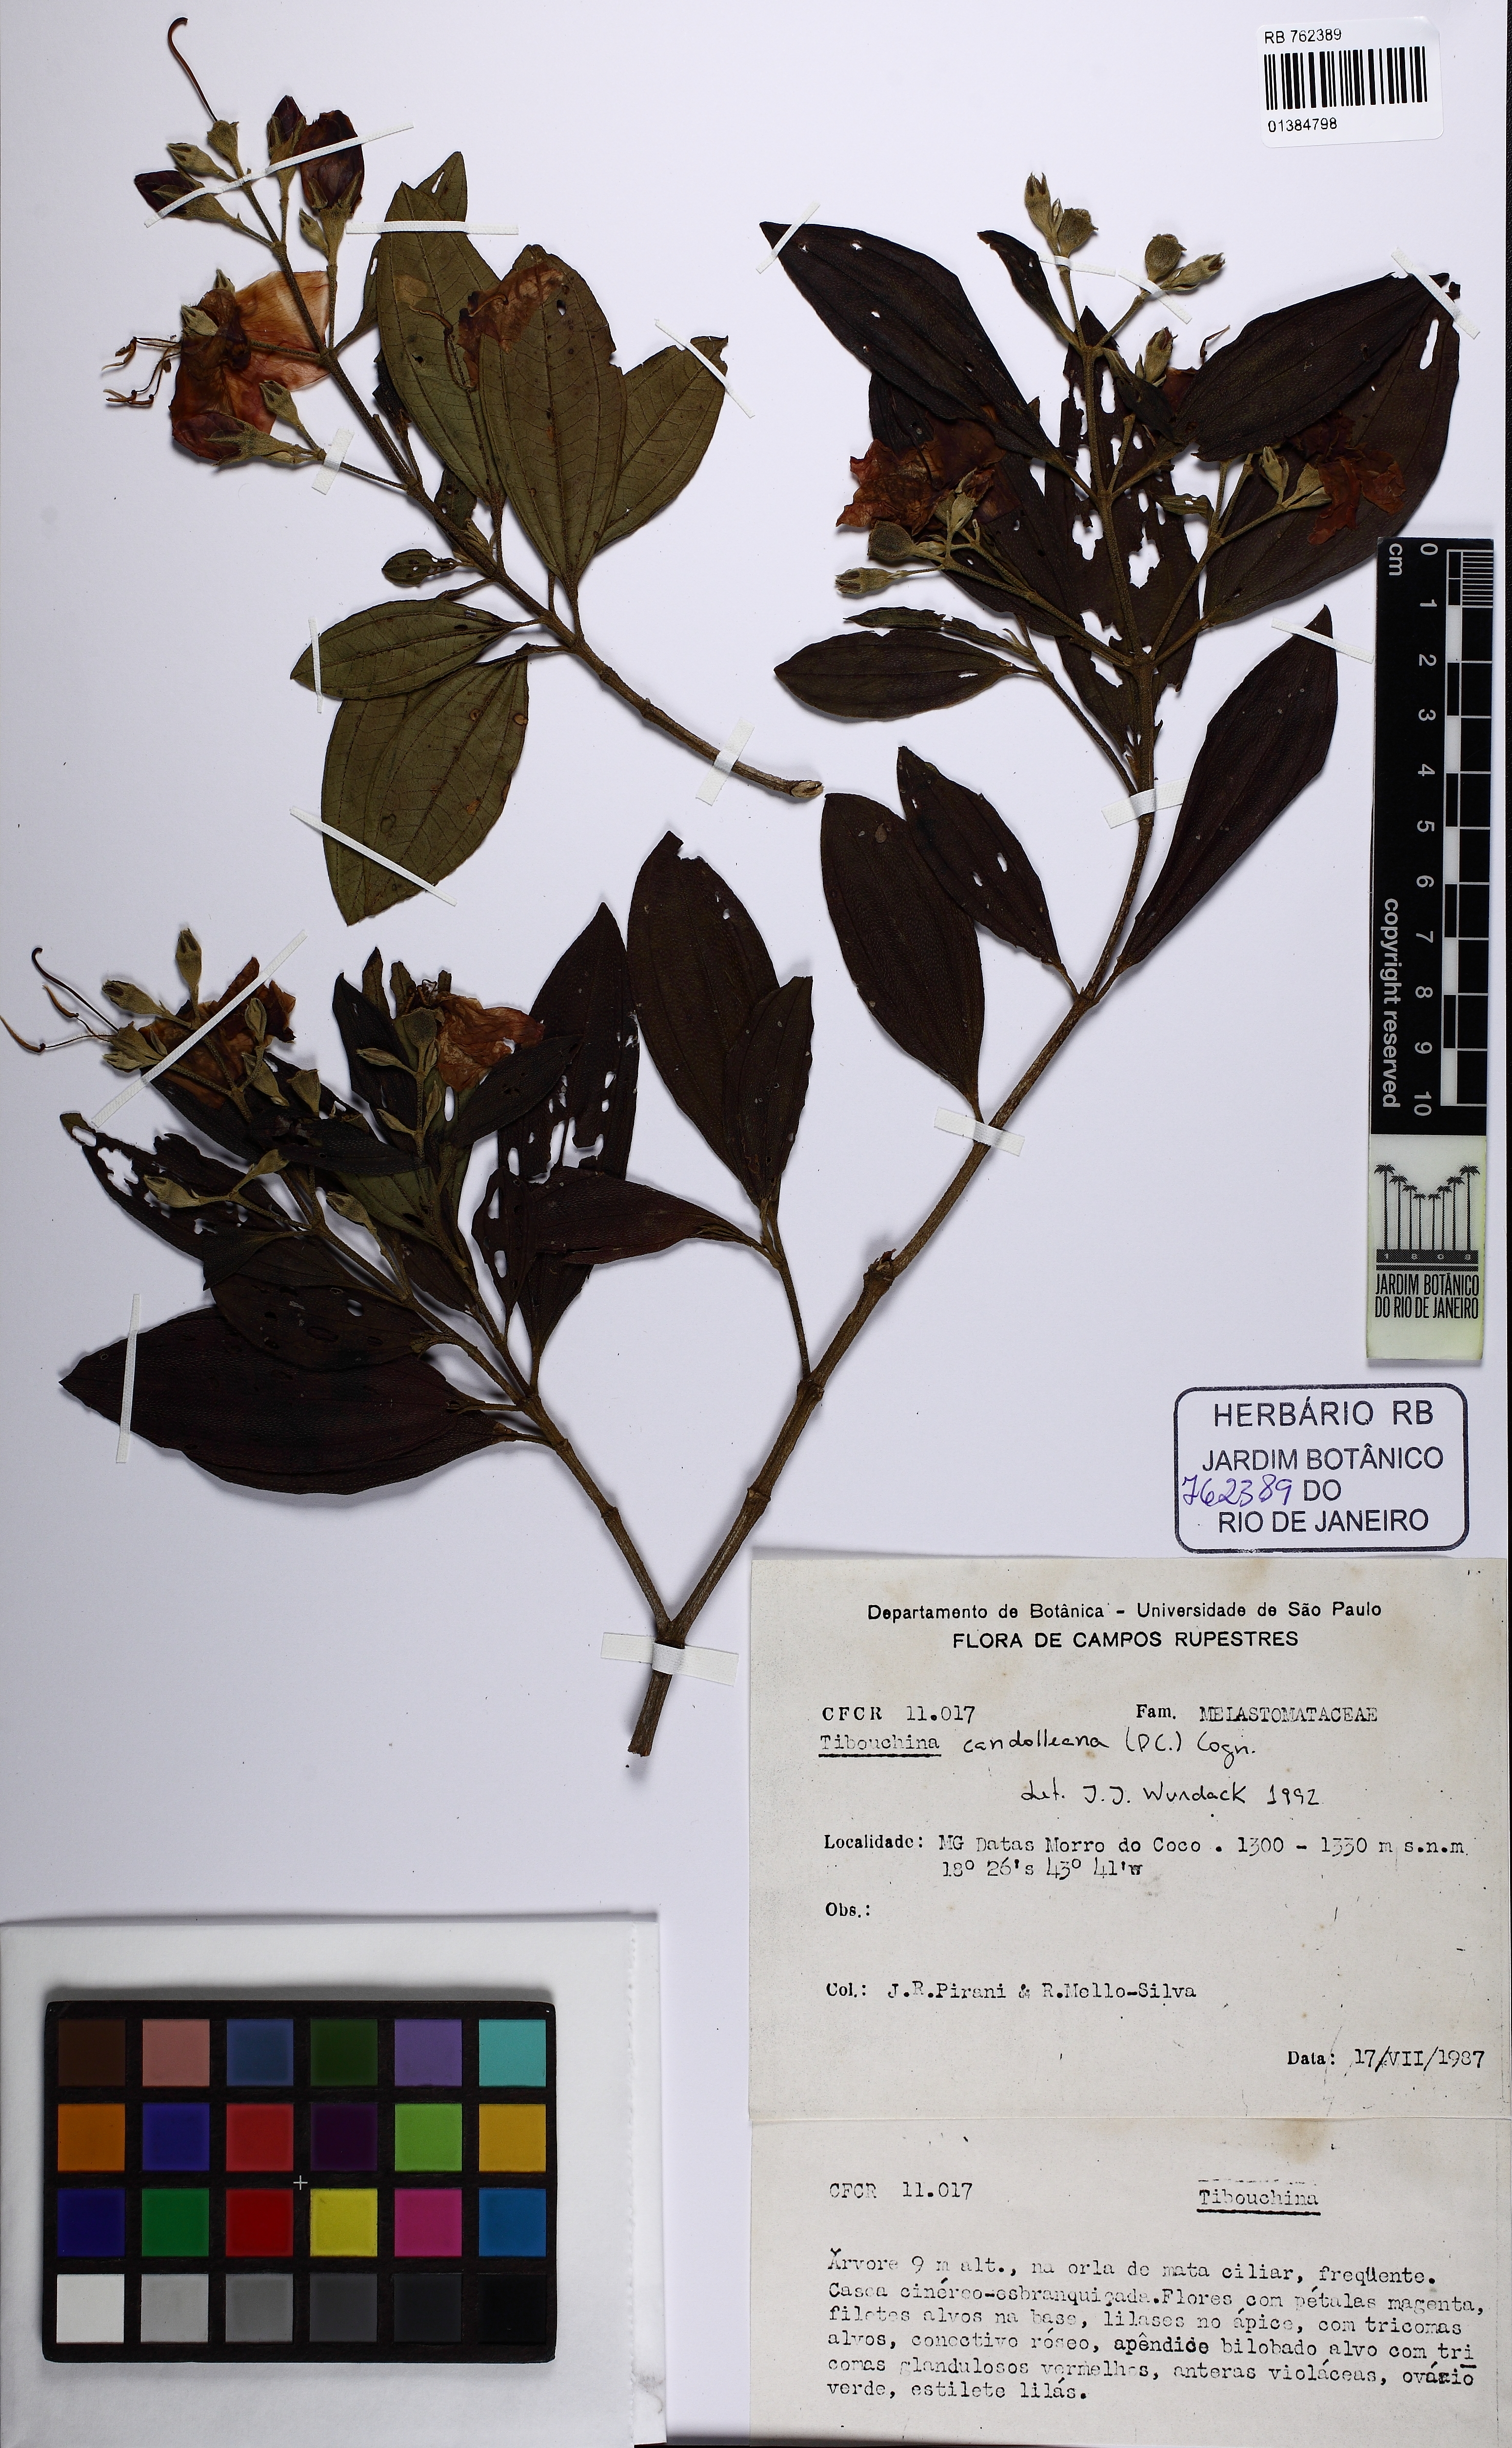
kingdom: Plantae
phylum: Tracheophyta
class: Magnoliopsida
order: Myrtales
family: Melastomataceae
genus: Pleroma
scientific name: Pleroma candolleanum
